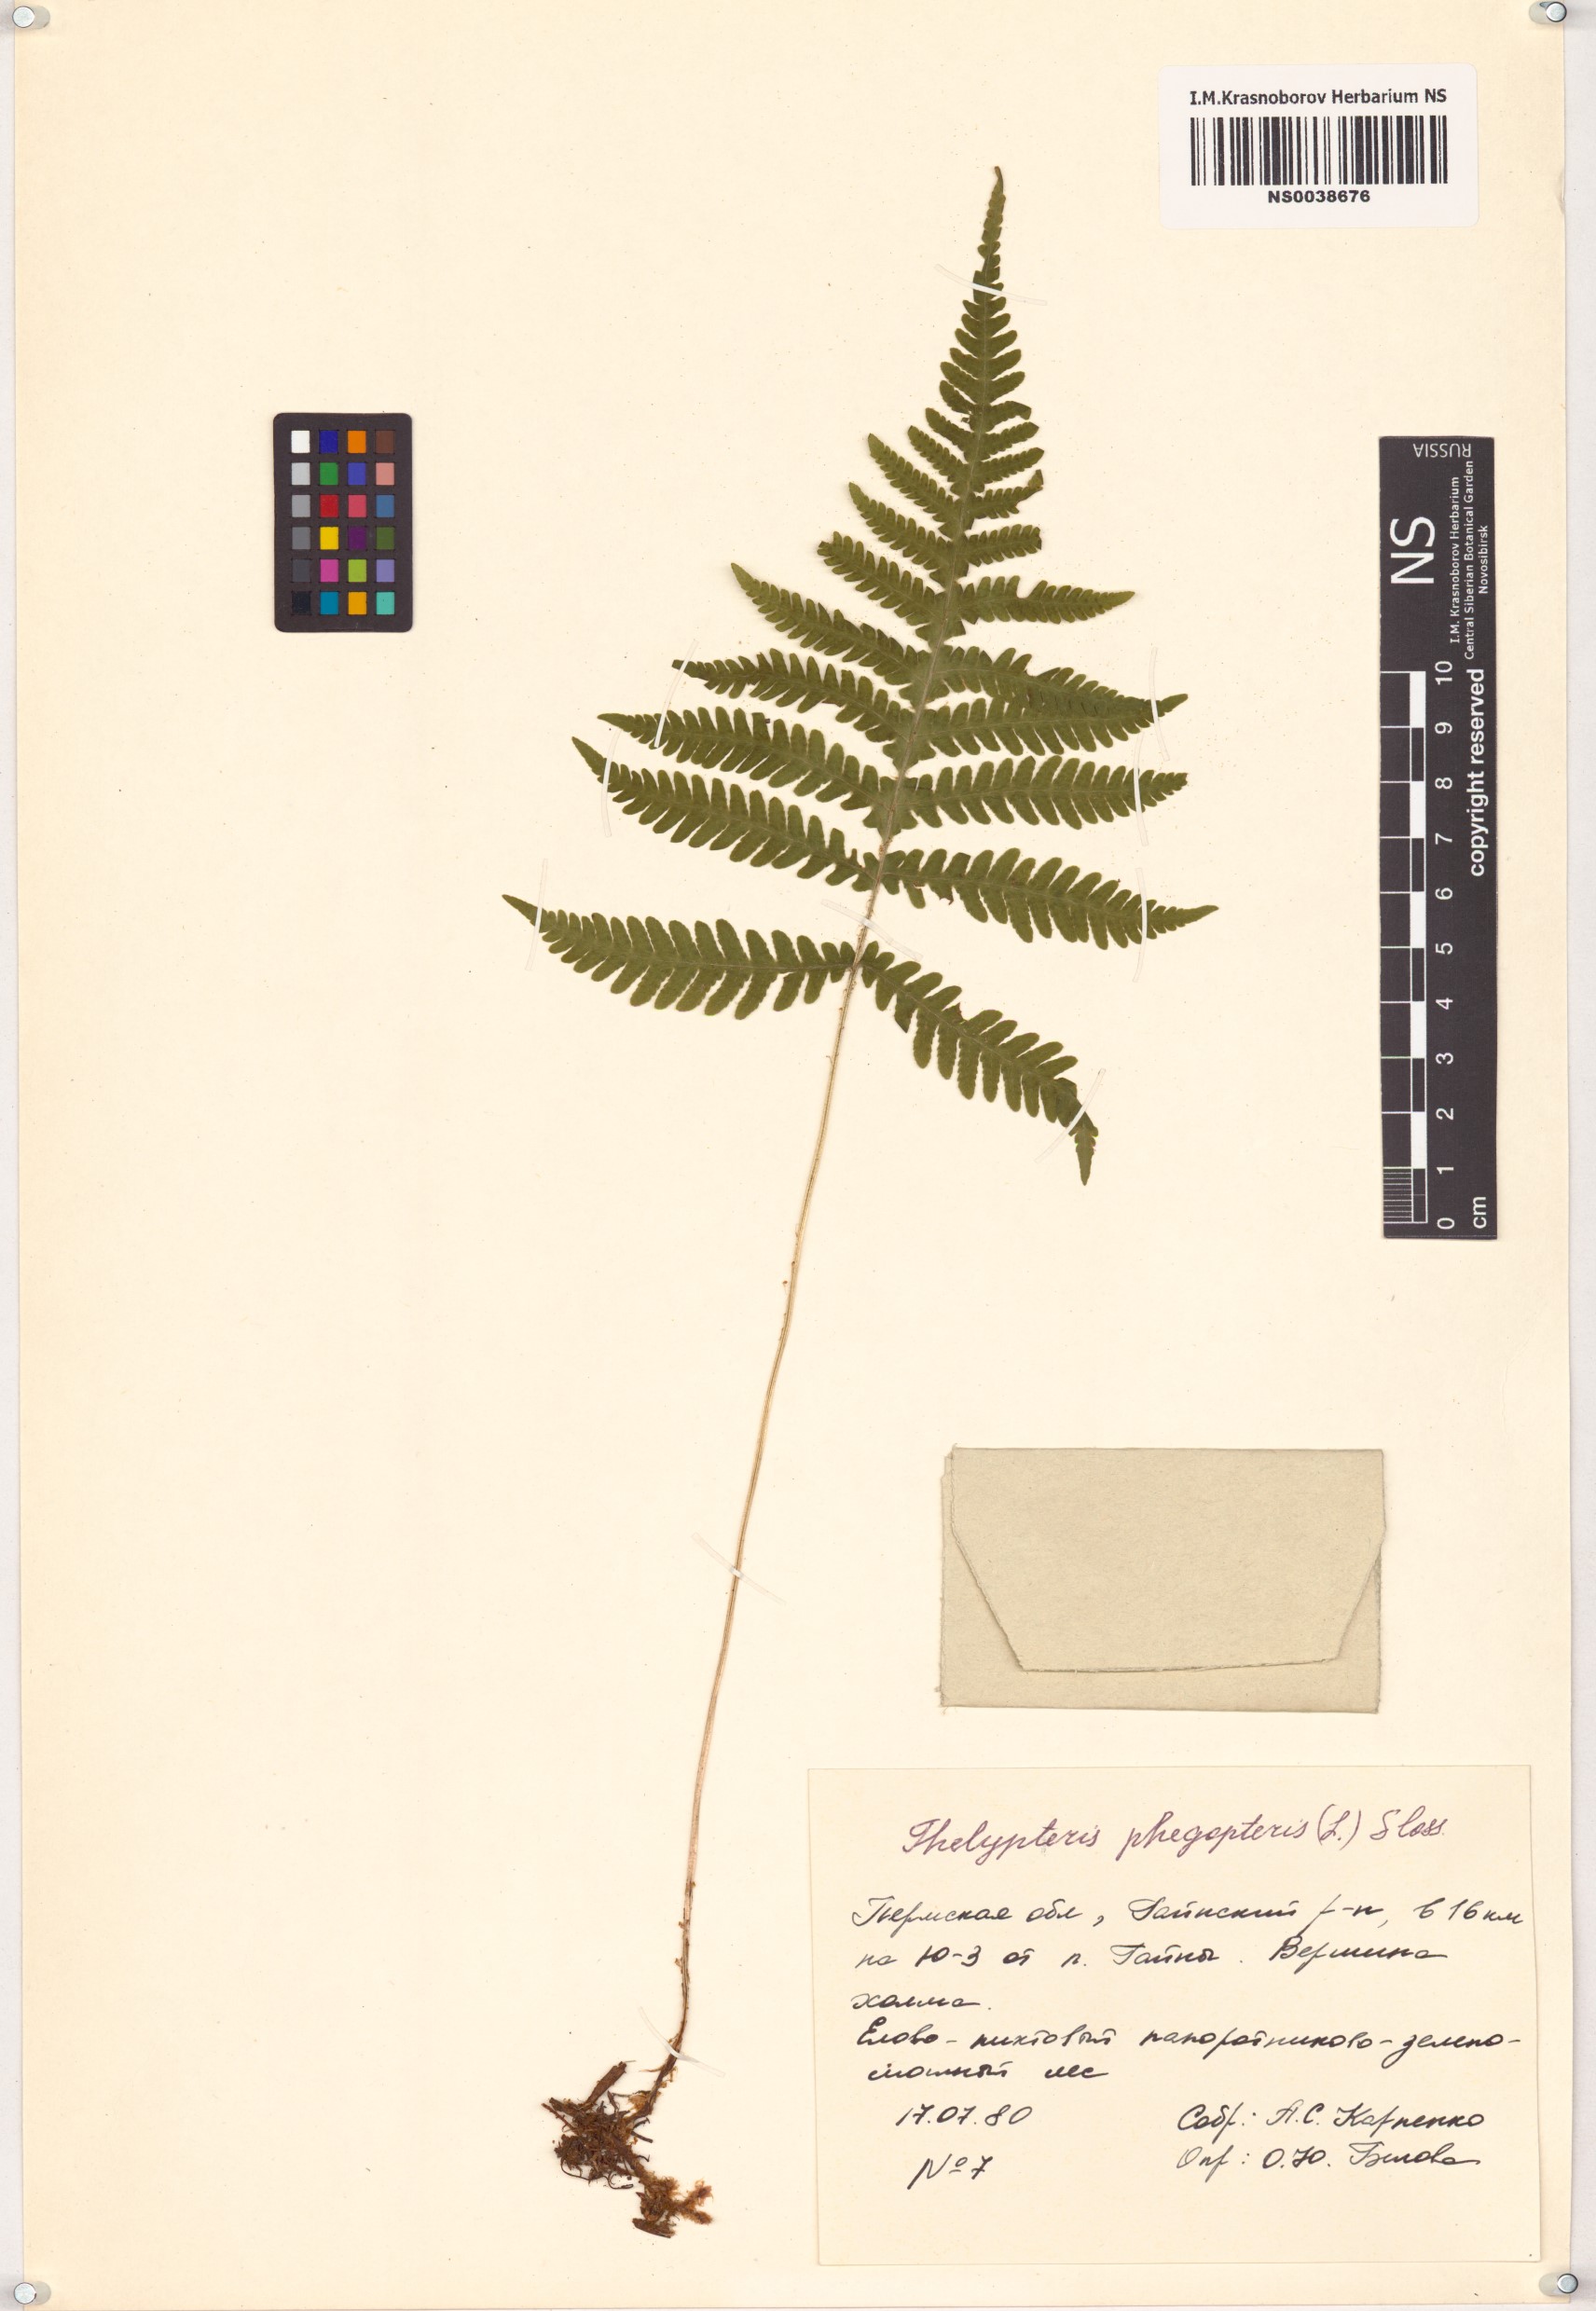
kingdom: Plantae
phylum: Tracheophyta
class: Polypodiopsida
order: Polypodiales
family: Thelypteridaceae
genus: Phegopteris
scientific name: Phegopteris connectilis
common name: Beech fern
